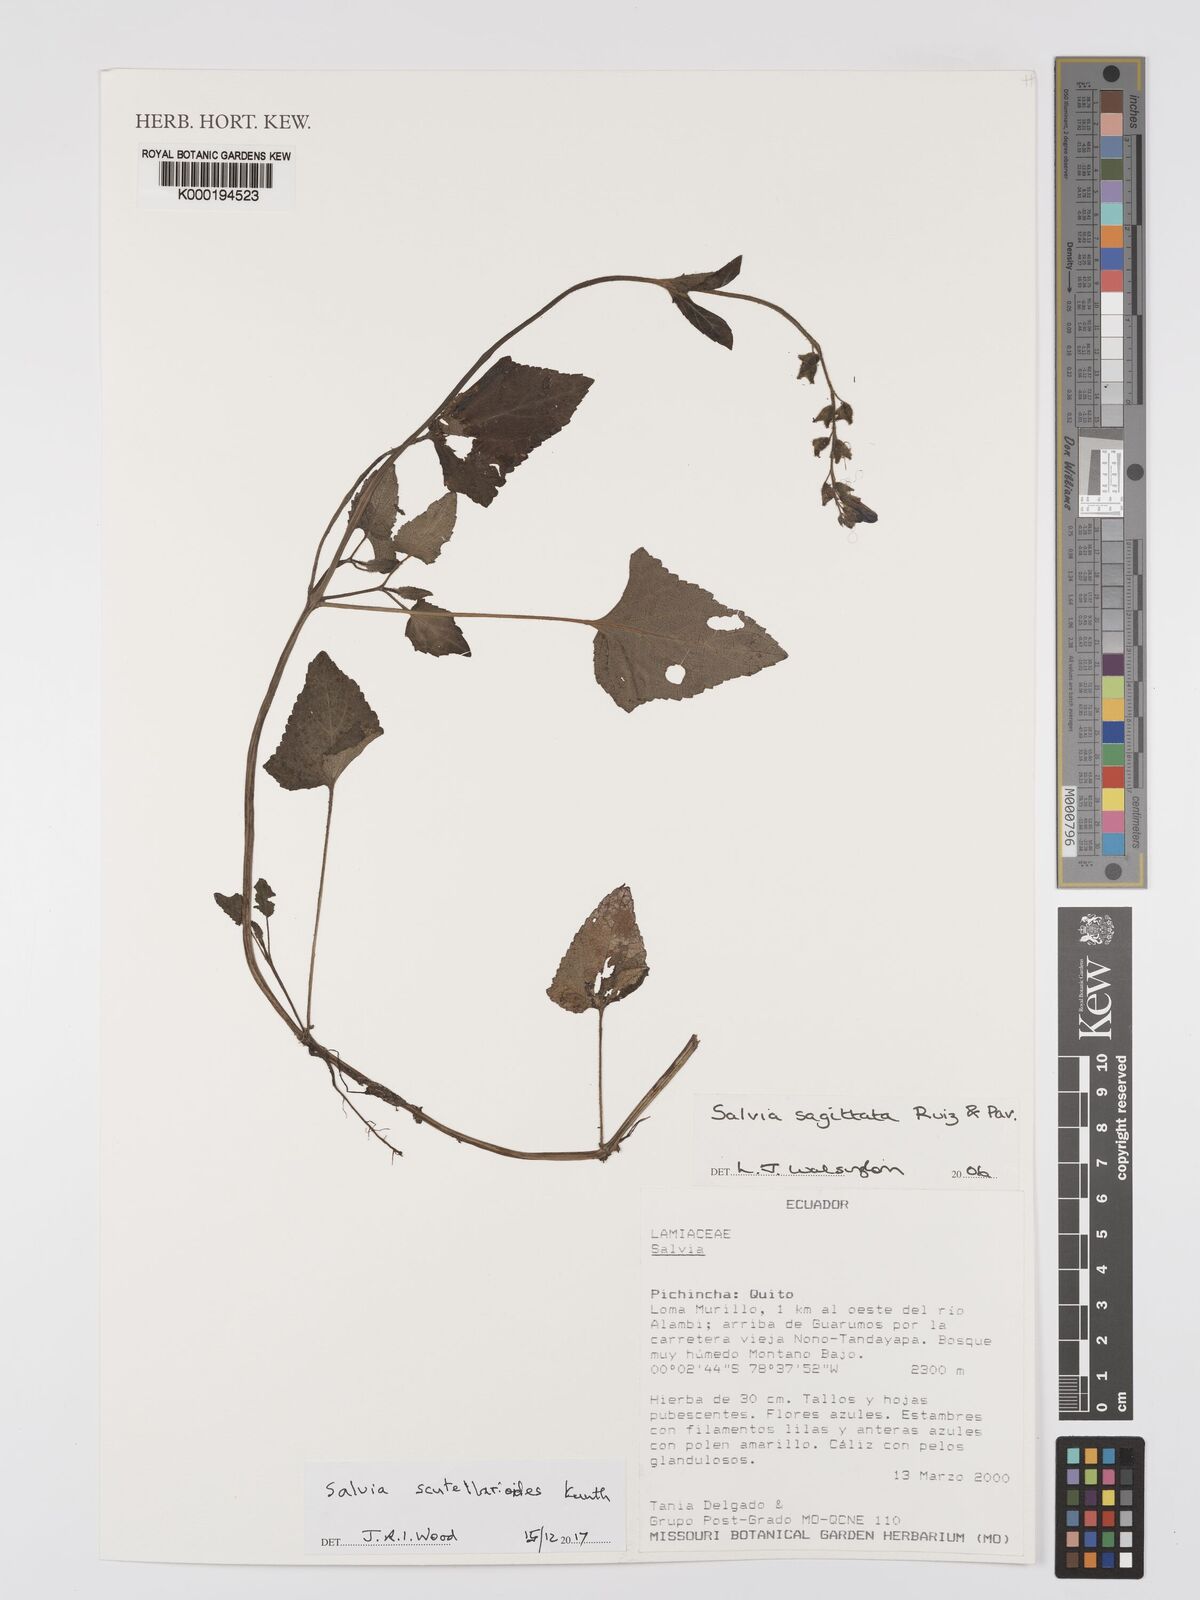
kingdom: Plantae
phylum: Tracheophyta
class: Magnoliopsida
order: Lamiales
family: Lamiaceae
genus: Salvia
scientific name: Salvia scutellarioides
